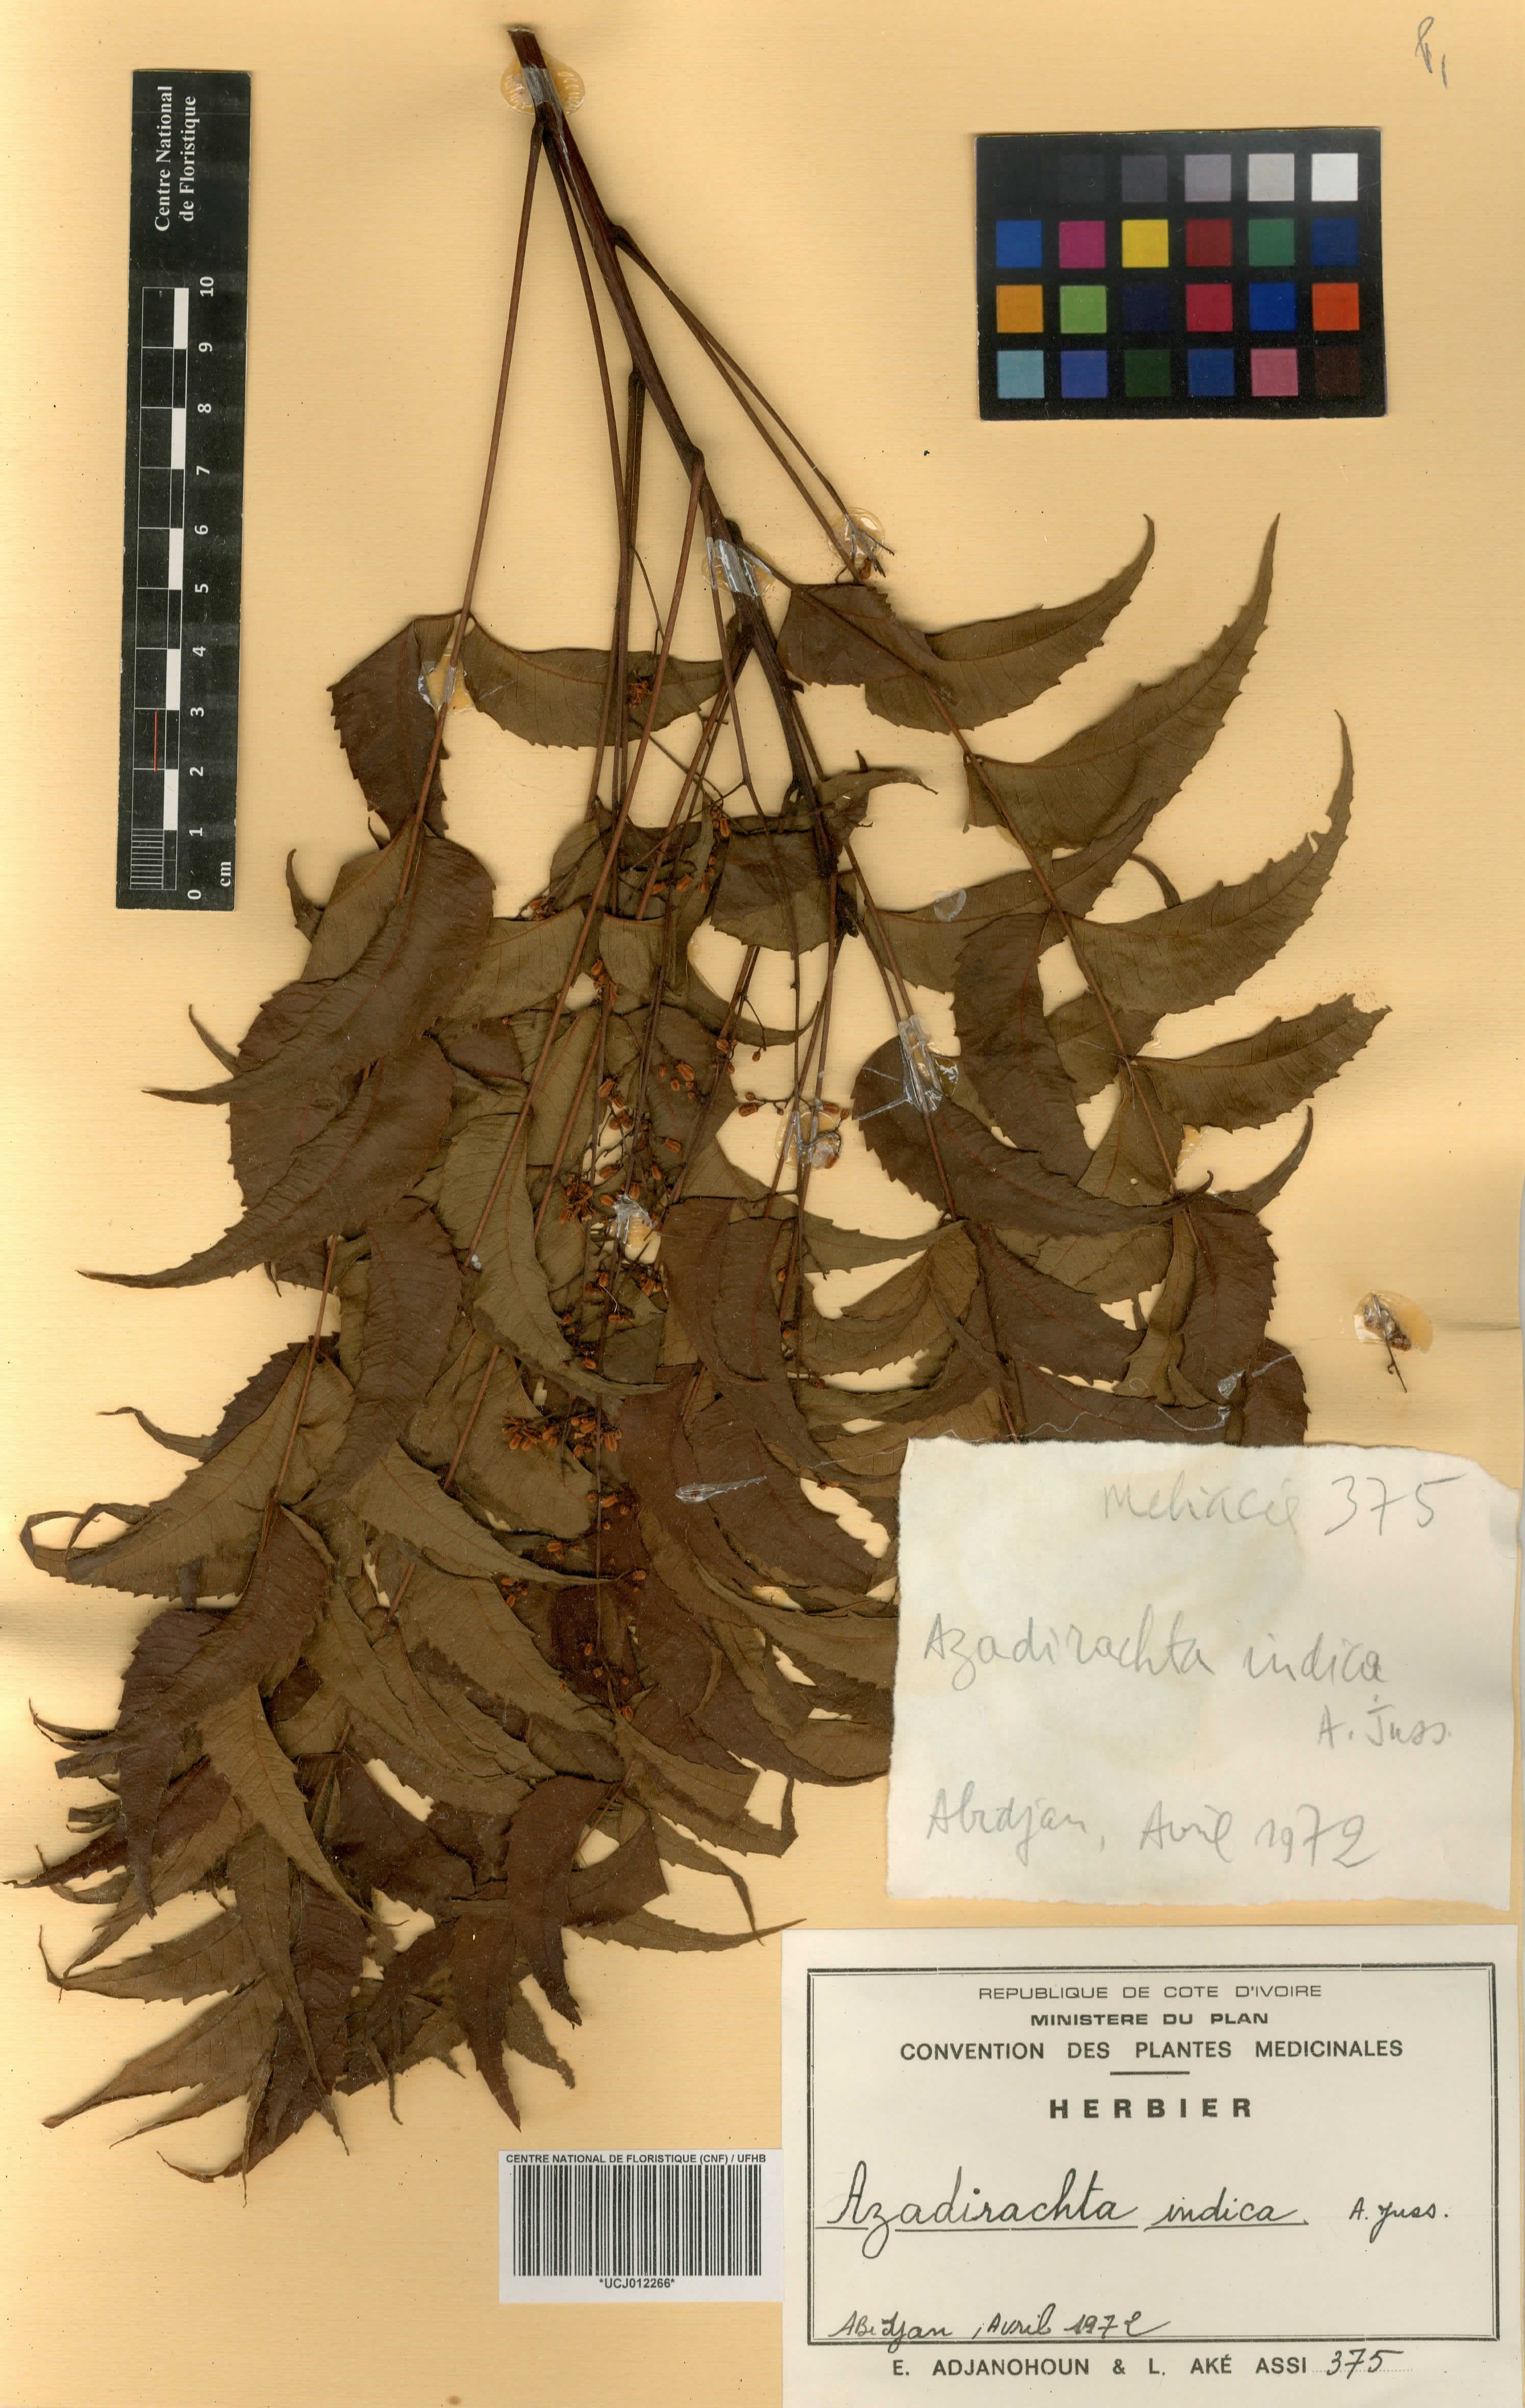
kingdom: Plantae
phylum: Tracheophyta
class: Magnoliopsida
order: Sapindales
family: Meliaceae
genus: Azadirachta
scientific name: Azadirachta indica
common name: Neem
